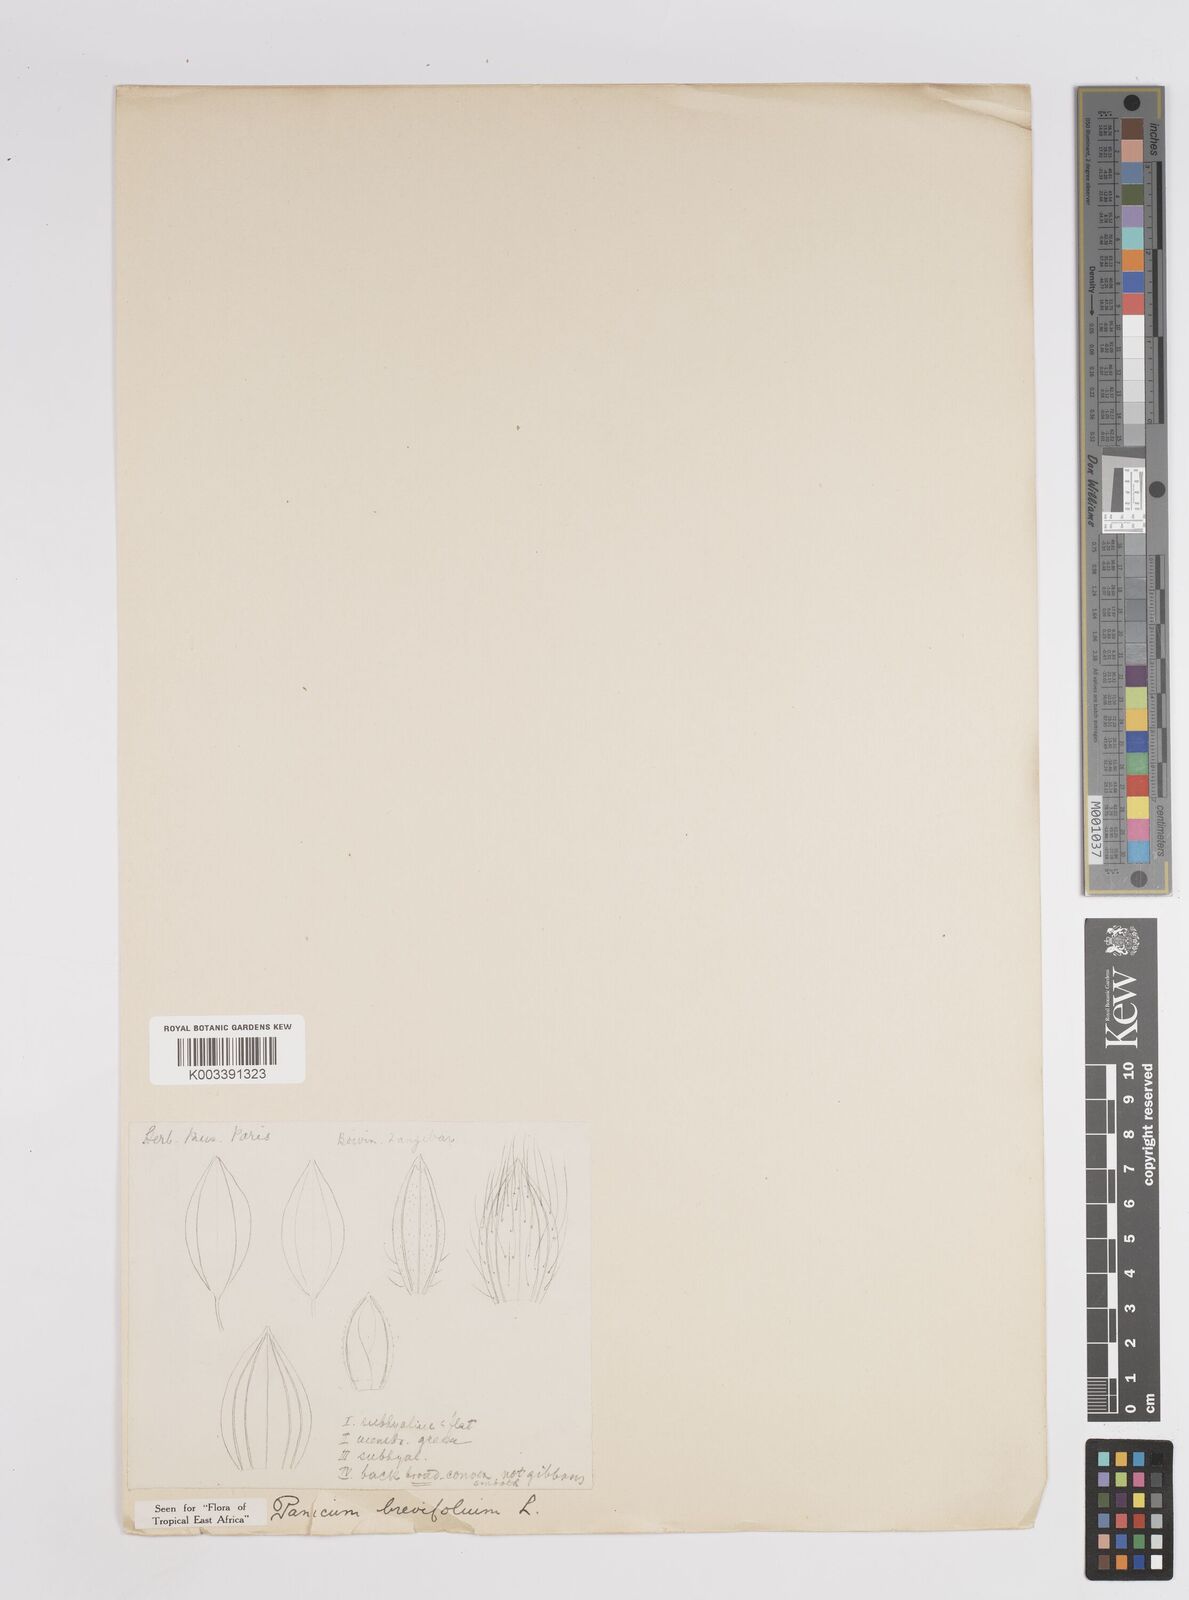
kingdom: Plantae
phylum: Tracheophyta
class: Liliopsida
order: Poales
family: Poaceae
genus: Panicum
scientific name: Panicum brevifolium
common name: Shortleaf panic grass
